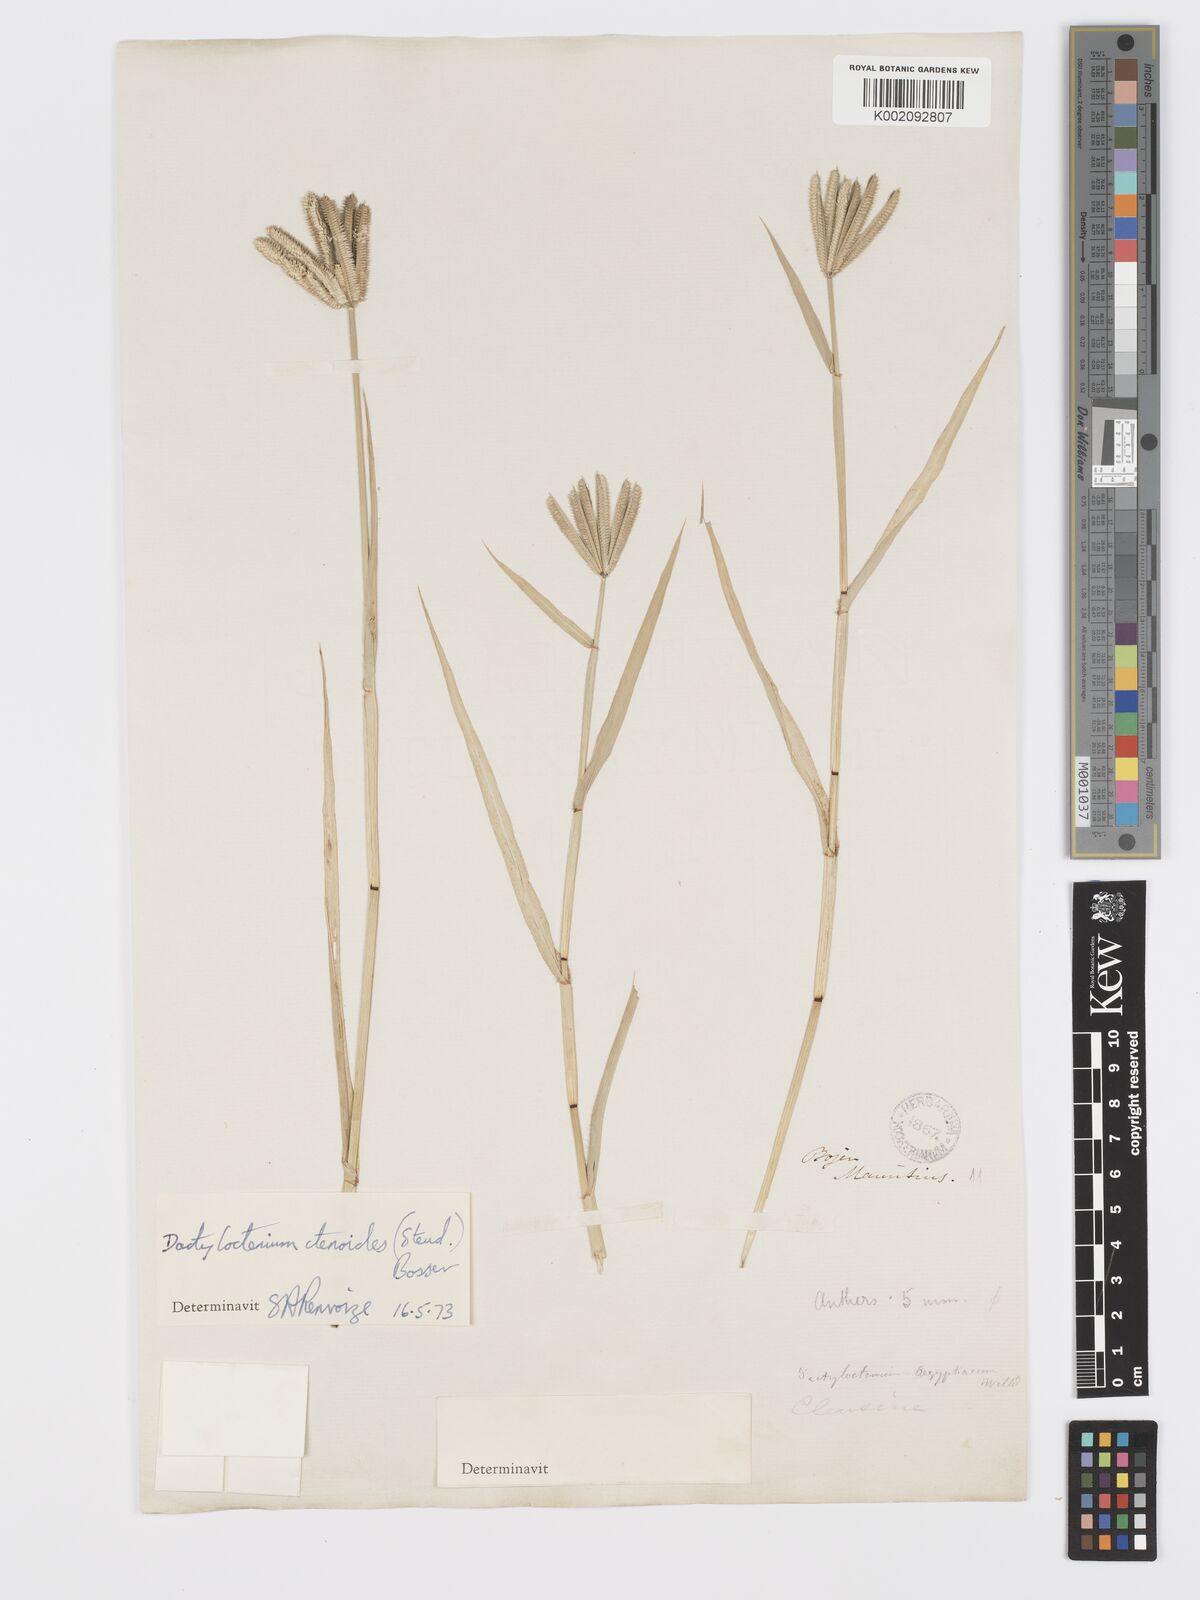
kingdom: Plantae
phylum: Tracheophyta
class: Liliopsida
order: Poales
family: Poaceae
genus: Dactyloctenium
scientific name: Dactyloctenium ctenoides
